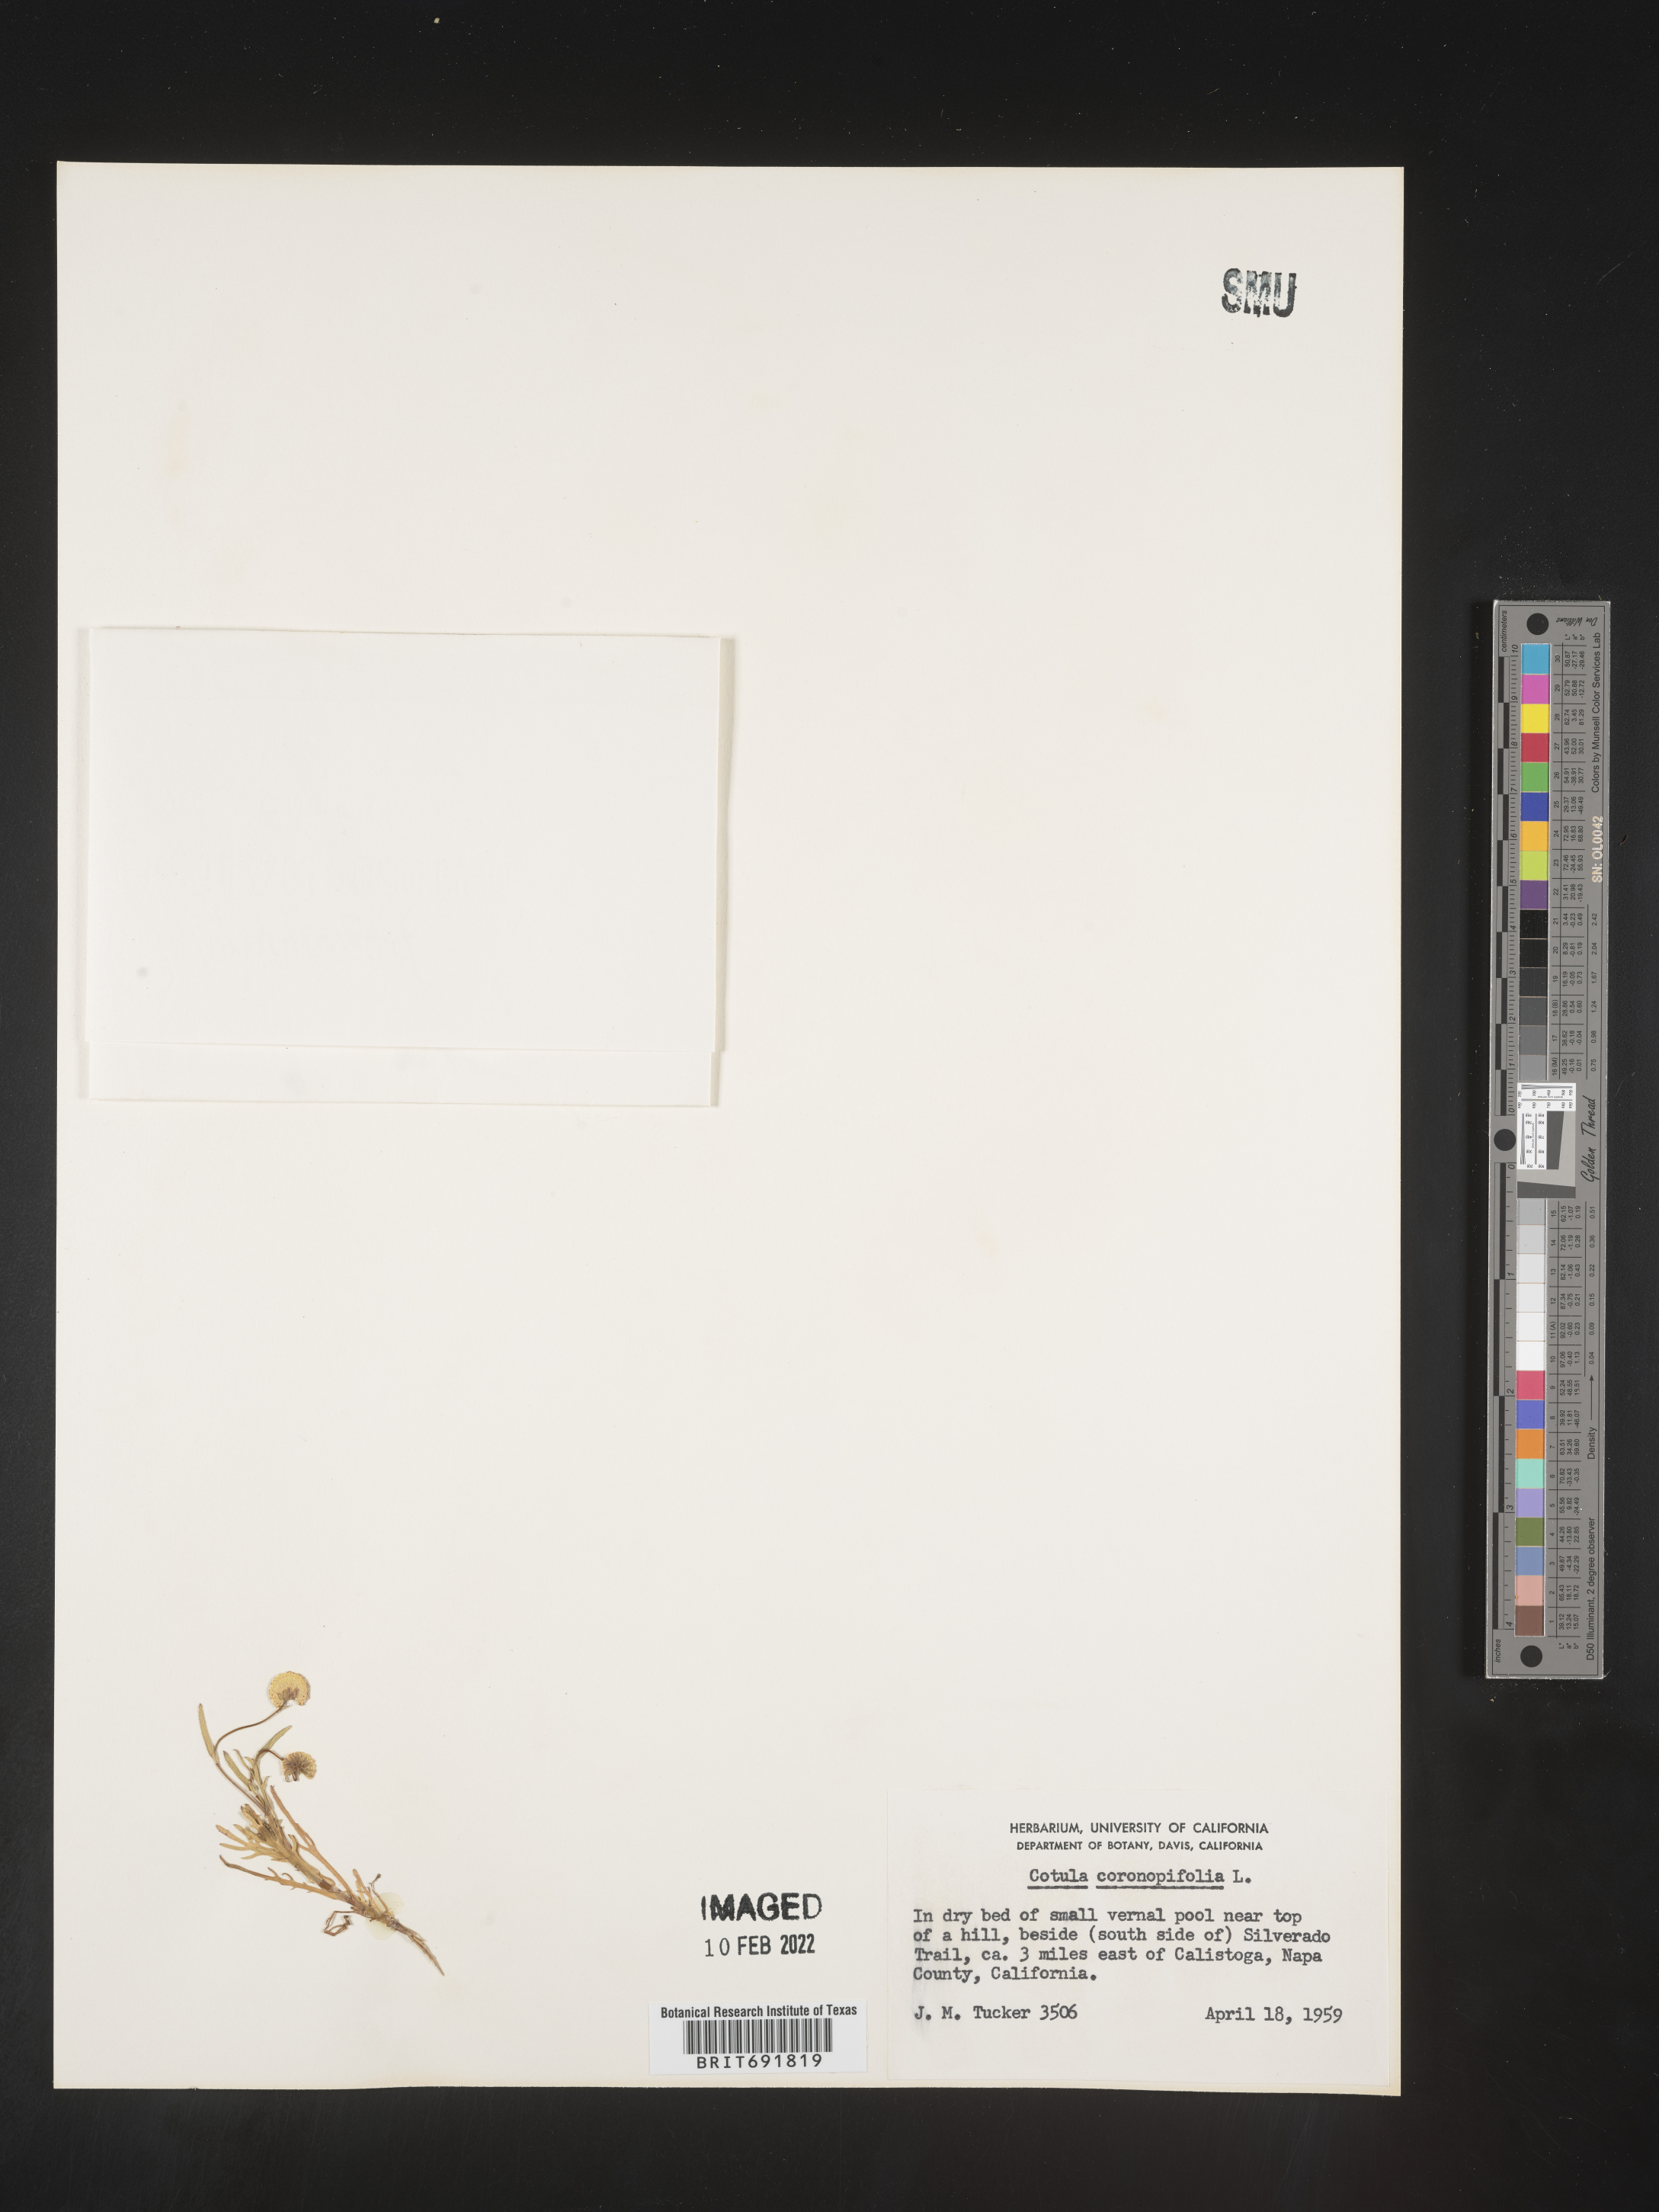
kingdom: Plantae
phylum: Tracheophyta
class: Magnoliopsida
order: Asterales
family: Asteraceae
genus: Cotula
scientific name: Cotula
